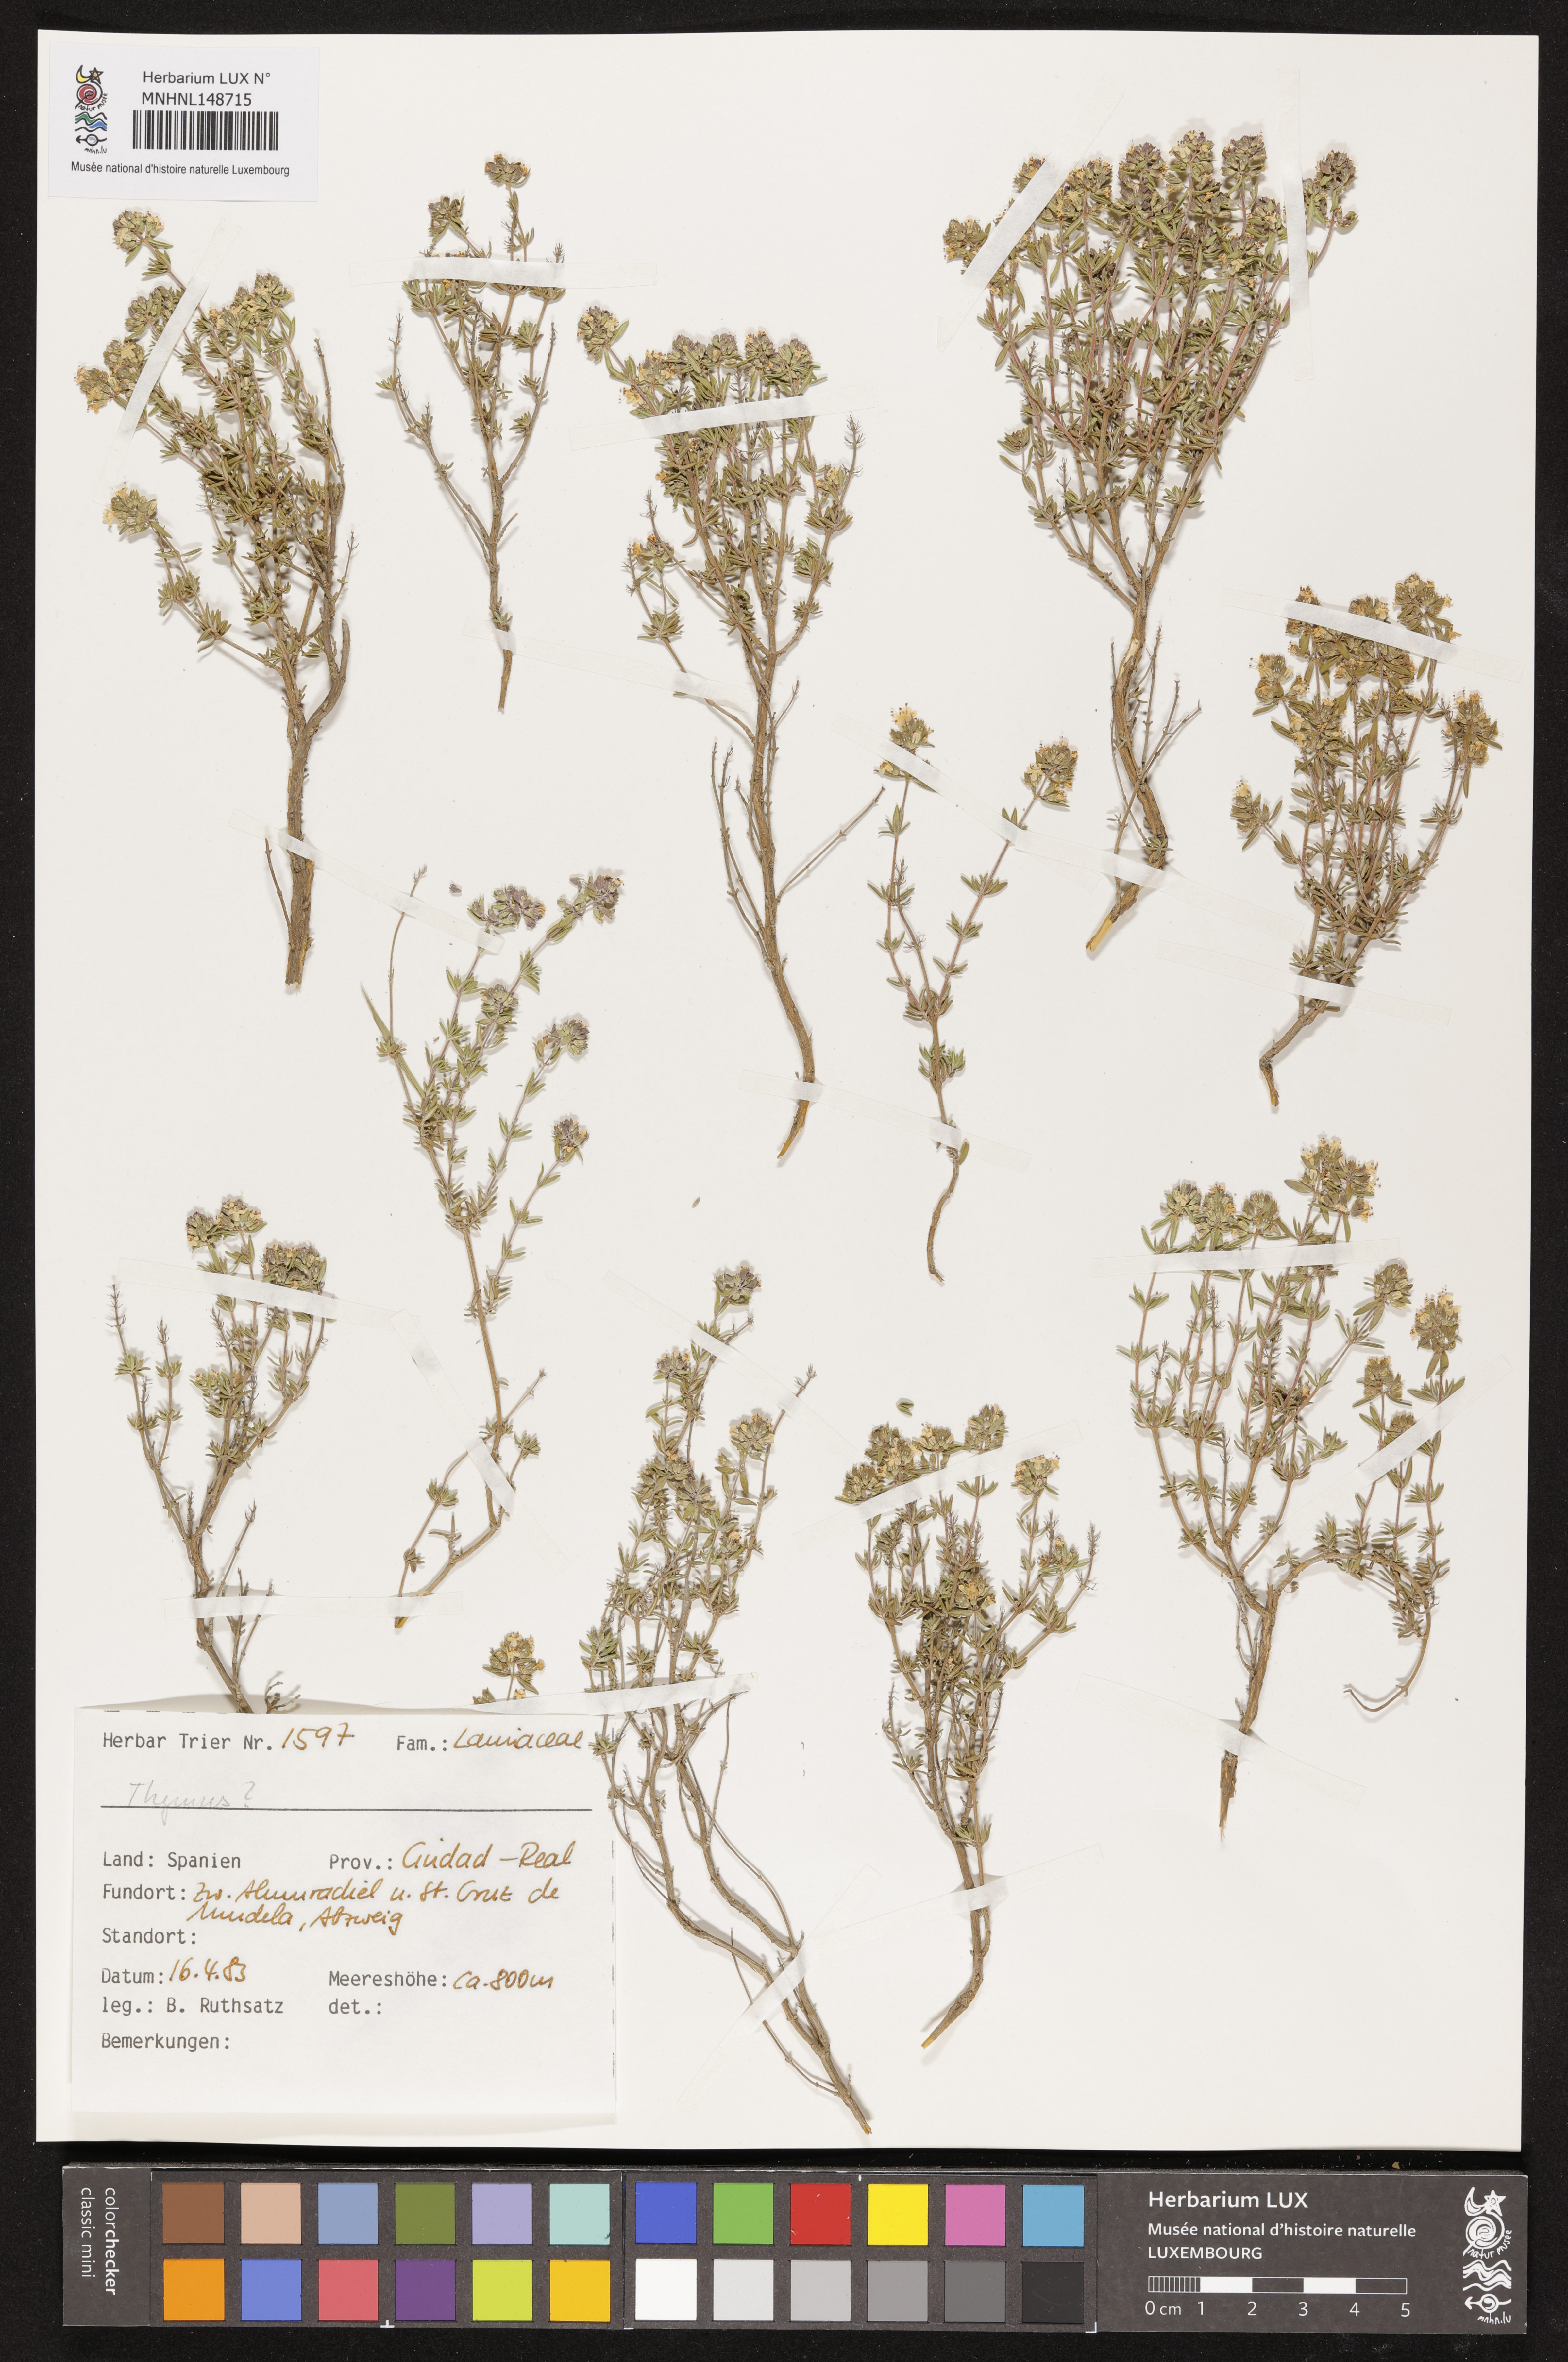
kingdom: Plantae
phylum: Tracheophyta
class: Magnoliopsida
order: Lamiales
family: Lamiaceae
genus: Thymus
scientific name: Thymus
